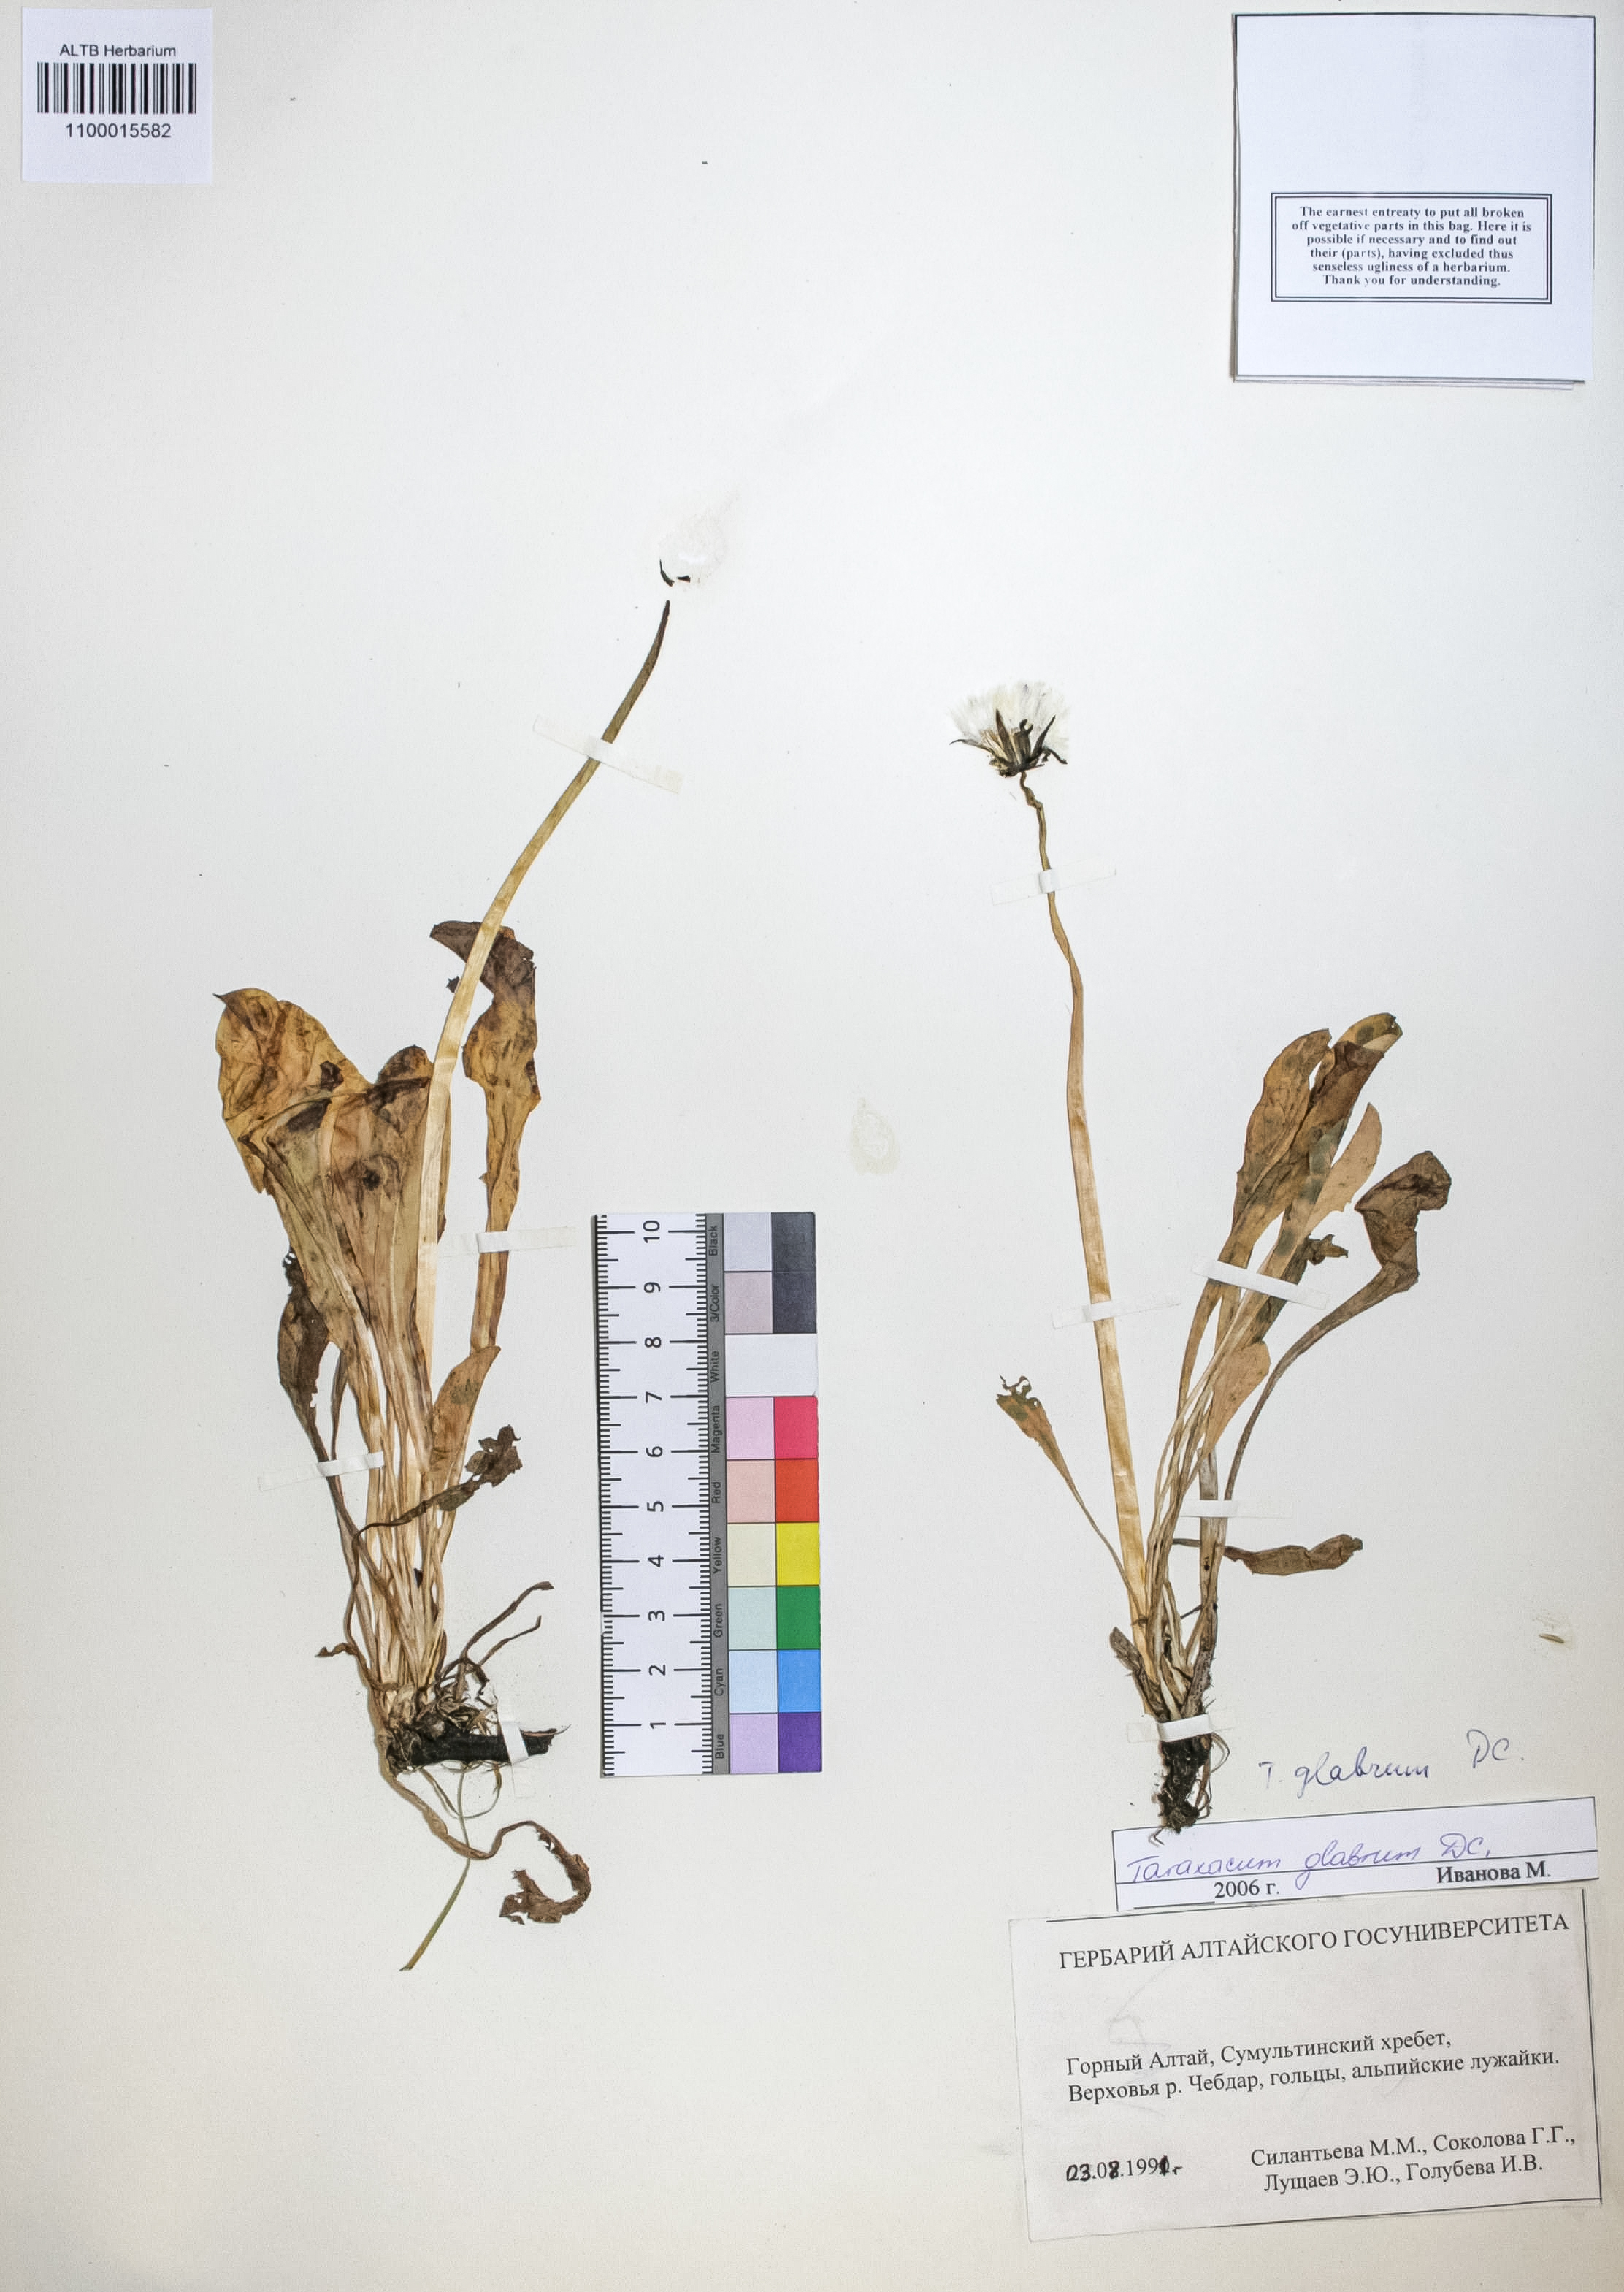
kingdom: Plantae
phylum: Tracheophyta
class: Magnoliopsida
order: Asterales
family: Asteraceae
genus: Taraxacum
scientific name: Taraxacum glabrum
